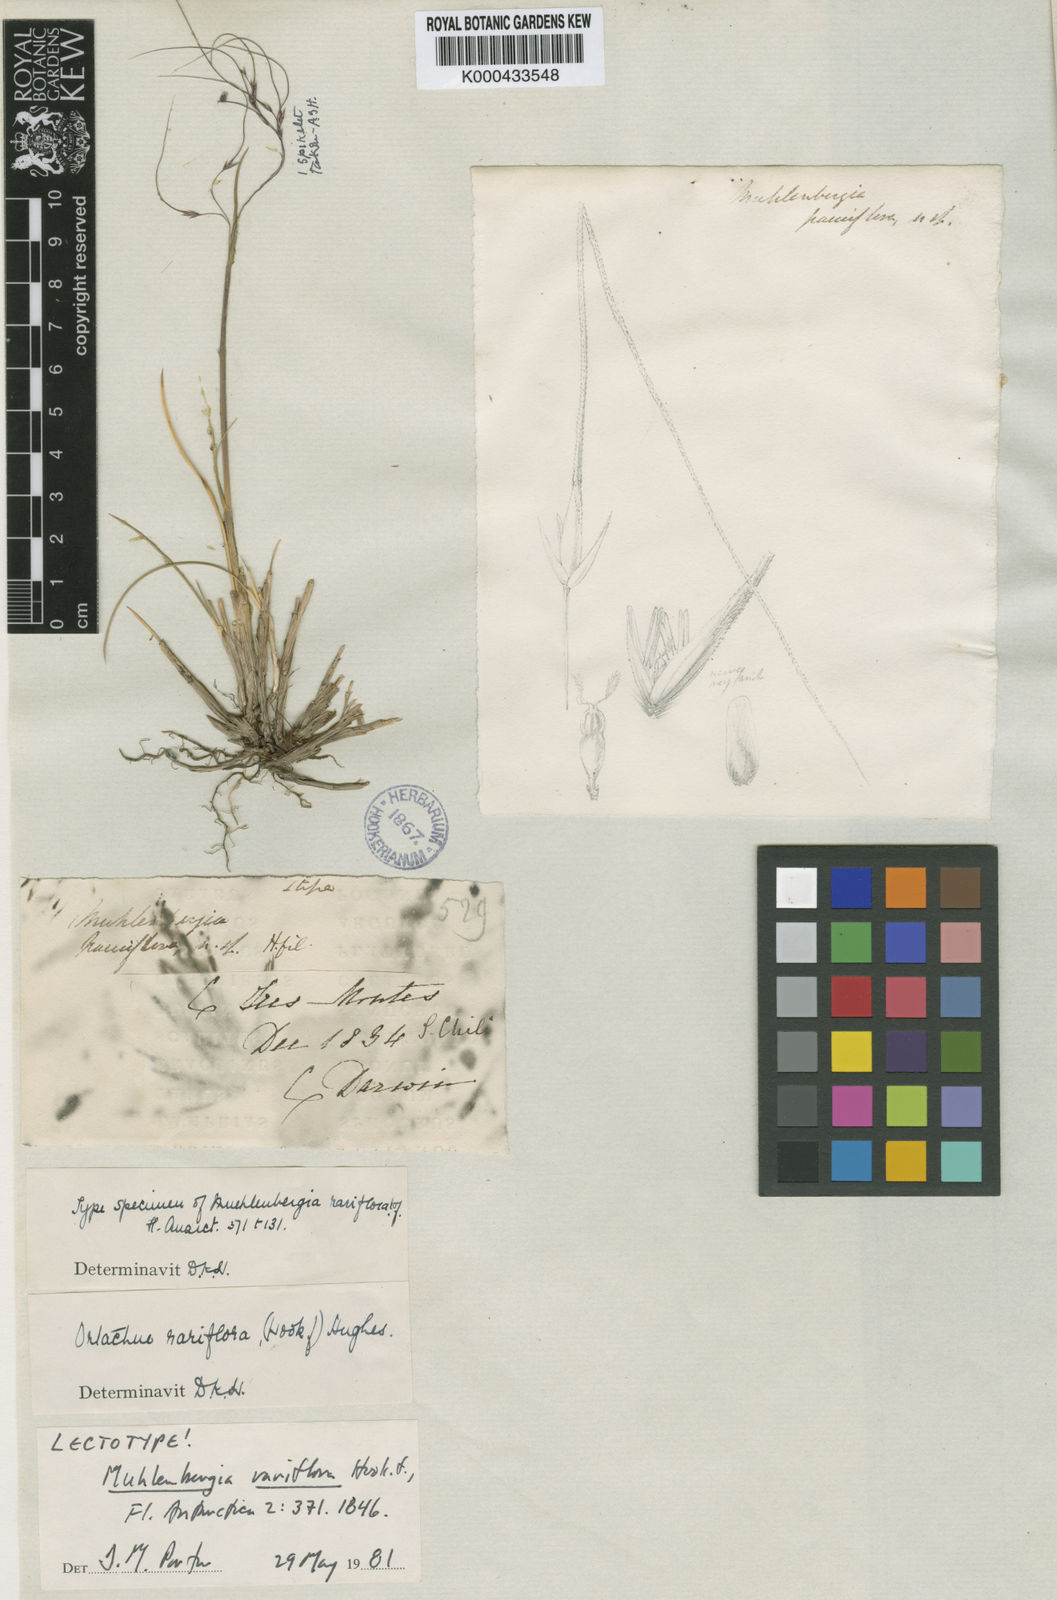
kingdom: Plantae
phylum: Tracheophyta
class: Liliopsida
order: Poales
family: Poaceae
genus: Ortachne
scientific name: Ortachne rariflora
